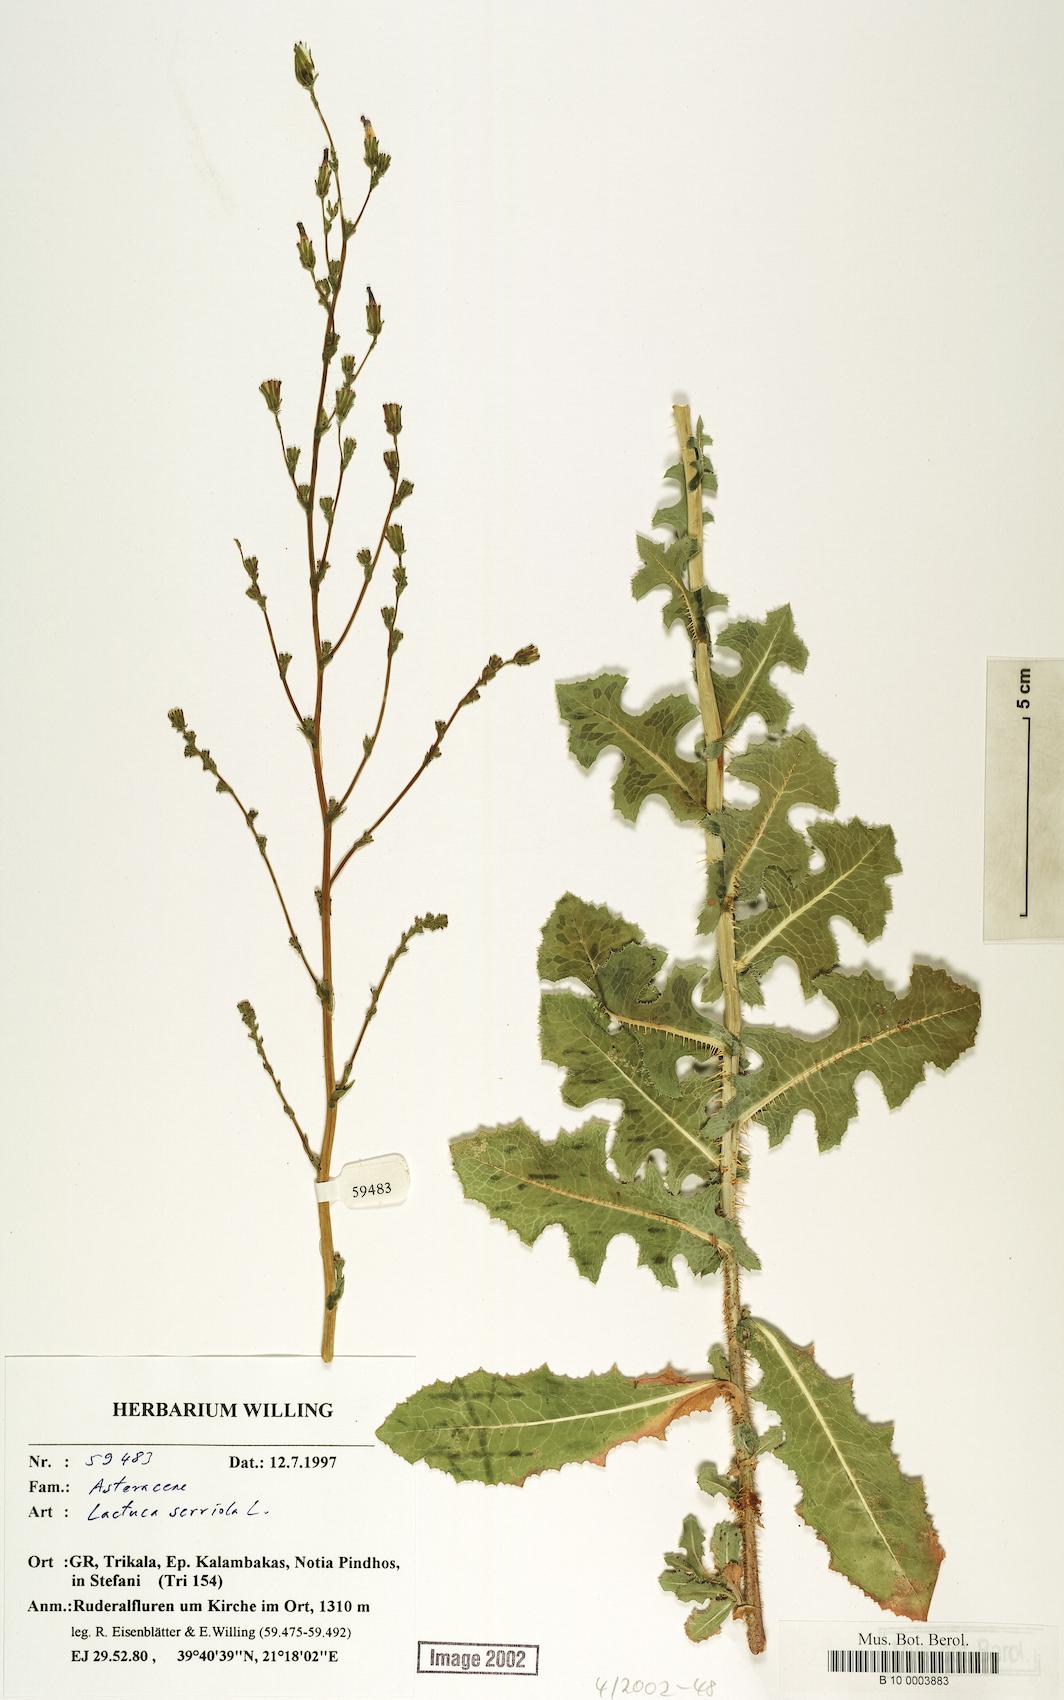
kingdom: Plantae
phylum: Tracheophyta
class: Magnoliopsida
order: Asterales
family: Asteraceae
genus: Lactuca
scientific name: Lactuca serriola
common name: Prickly lettuce
